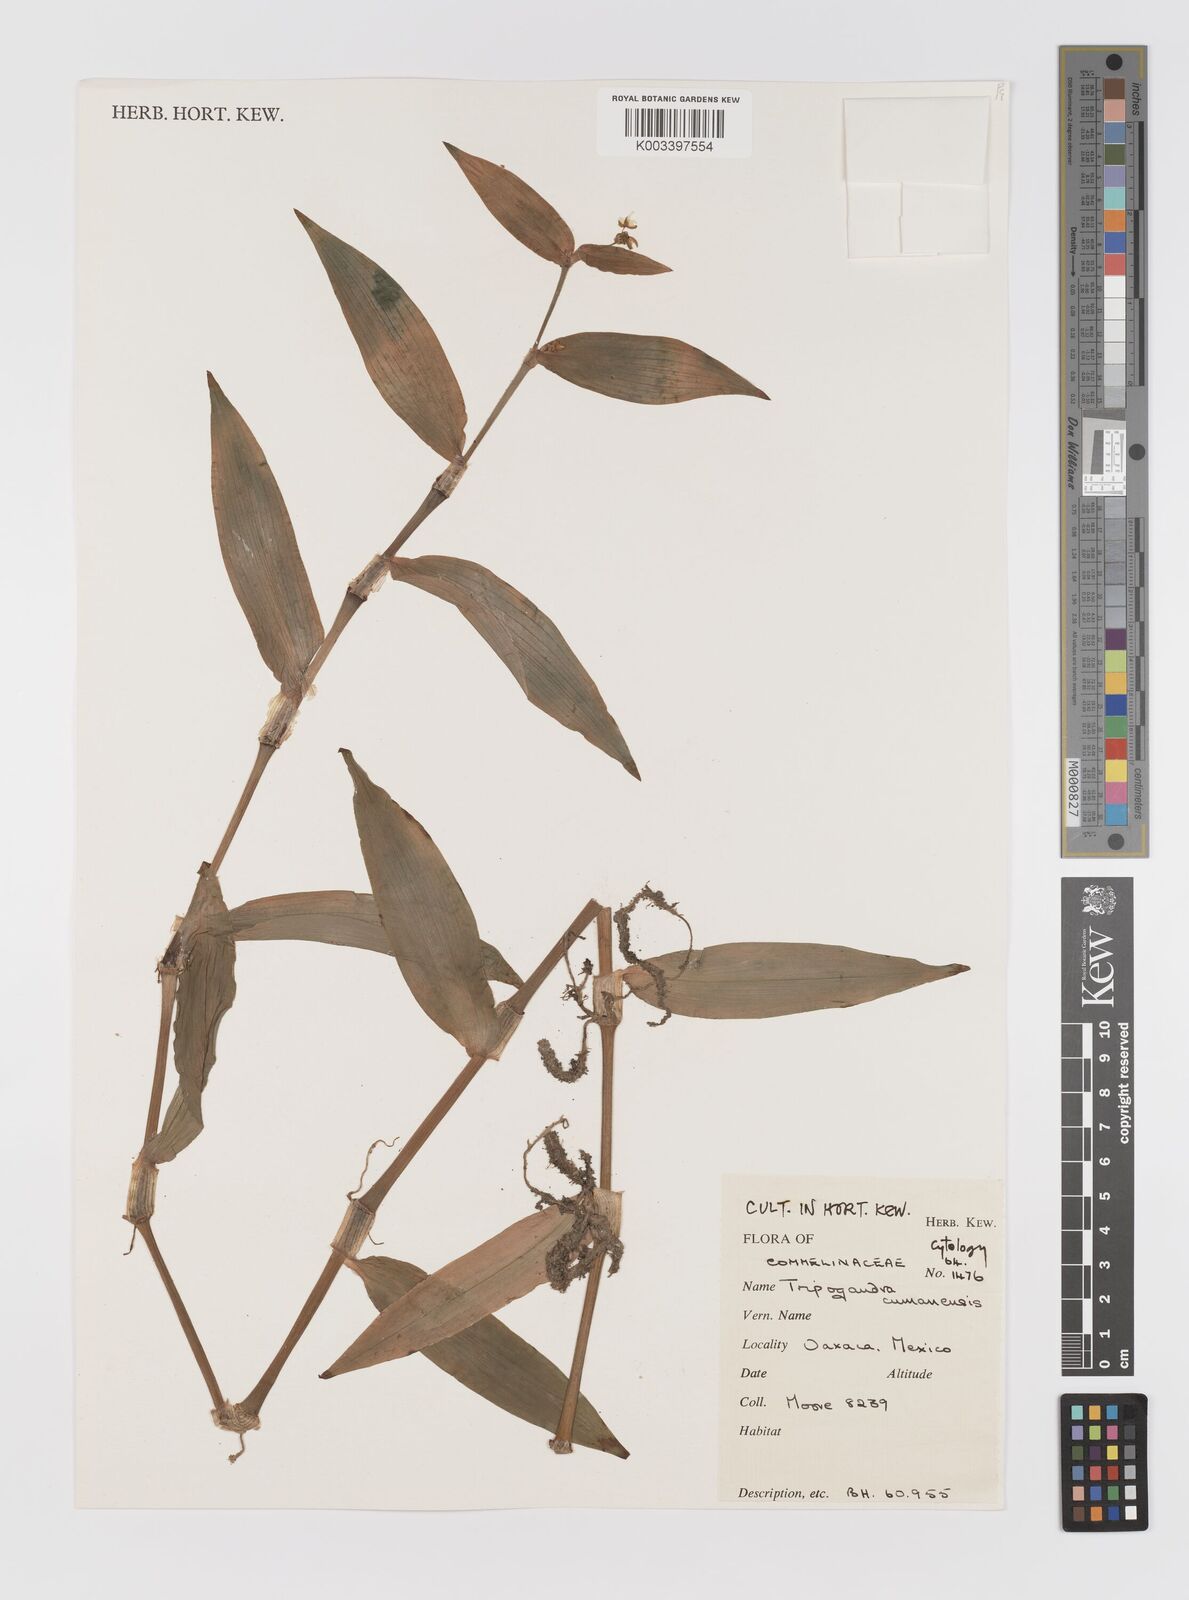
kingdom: Plantae
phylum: Tracheophyta
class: Liliopsida
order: Commelinales
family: Commelinaceae
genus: Callisia
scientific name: Callisia serrulata
